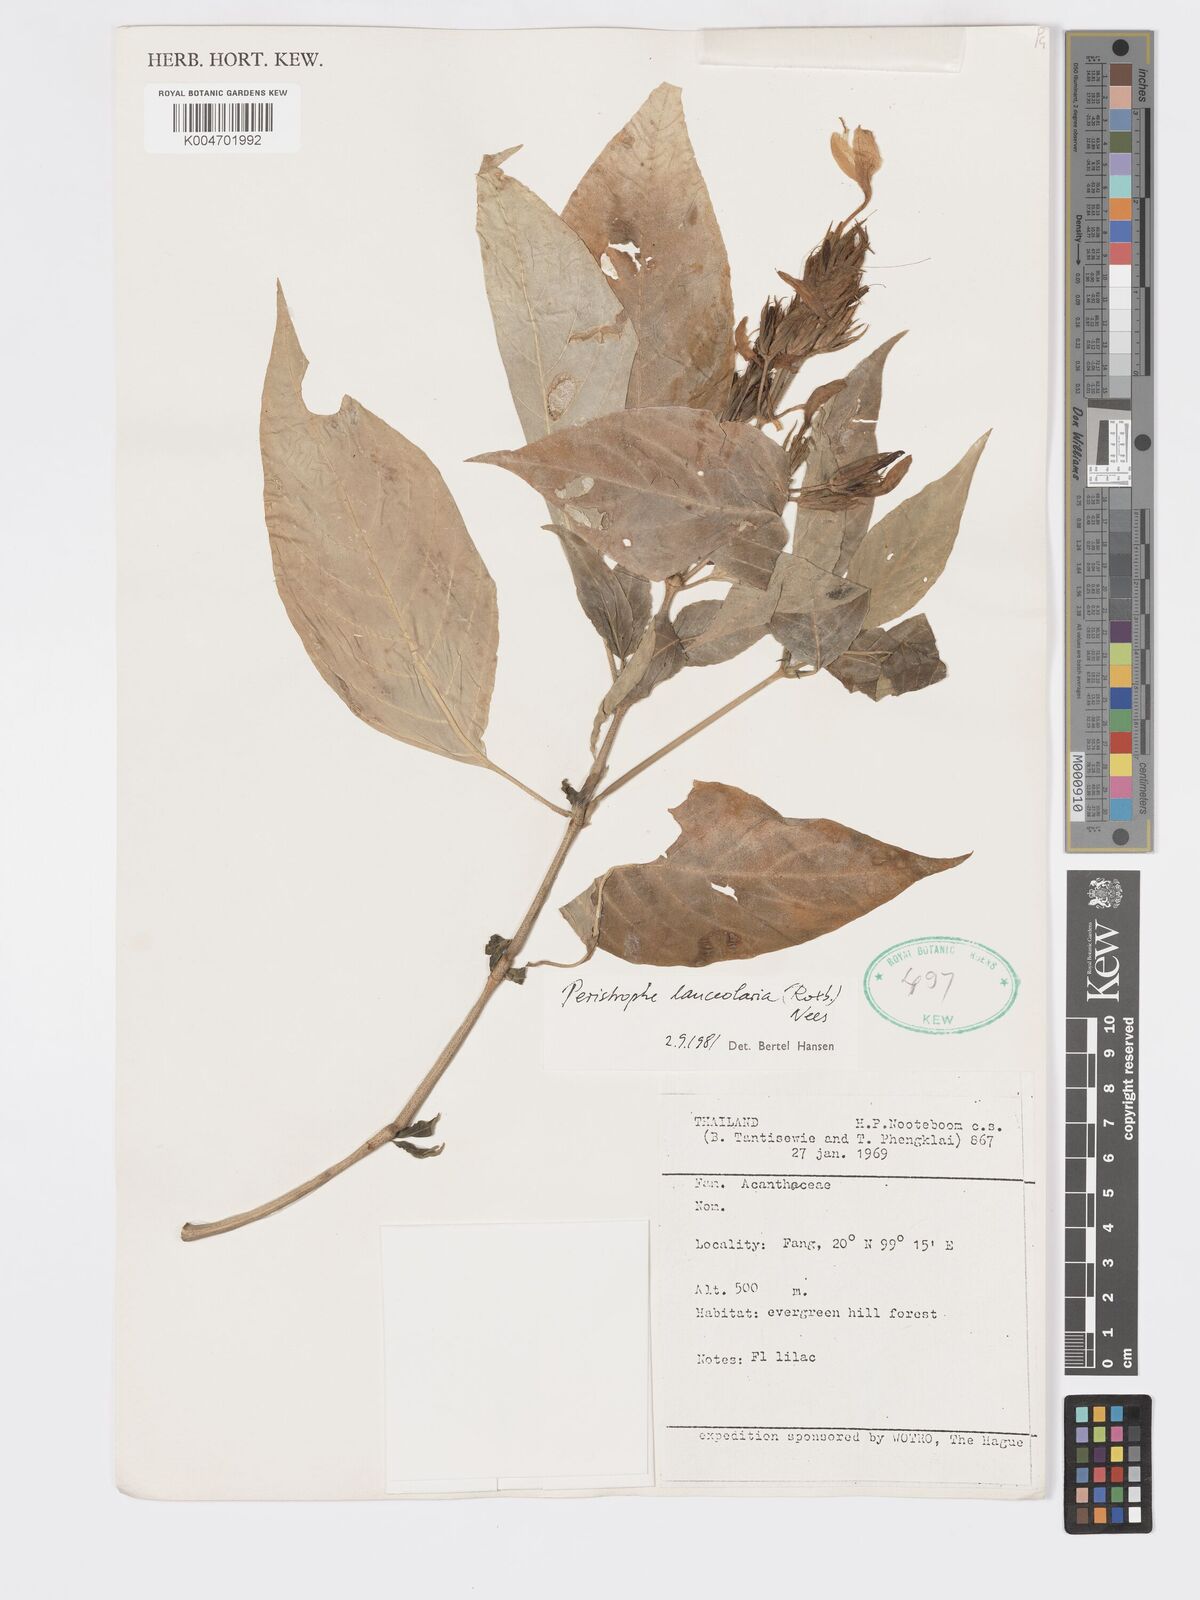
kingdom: Plantae
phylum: Tracheophyta
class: Magnoliopsida
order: Lamiales
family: Acanthaceae
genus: Dicliptera
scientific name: Dicliptera lanceolaria
